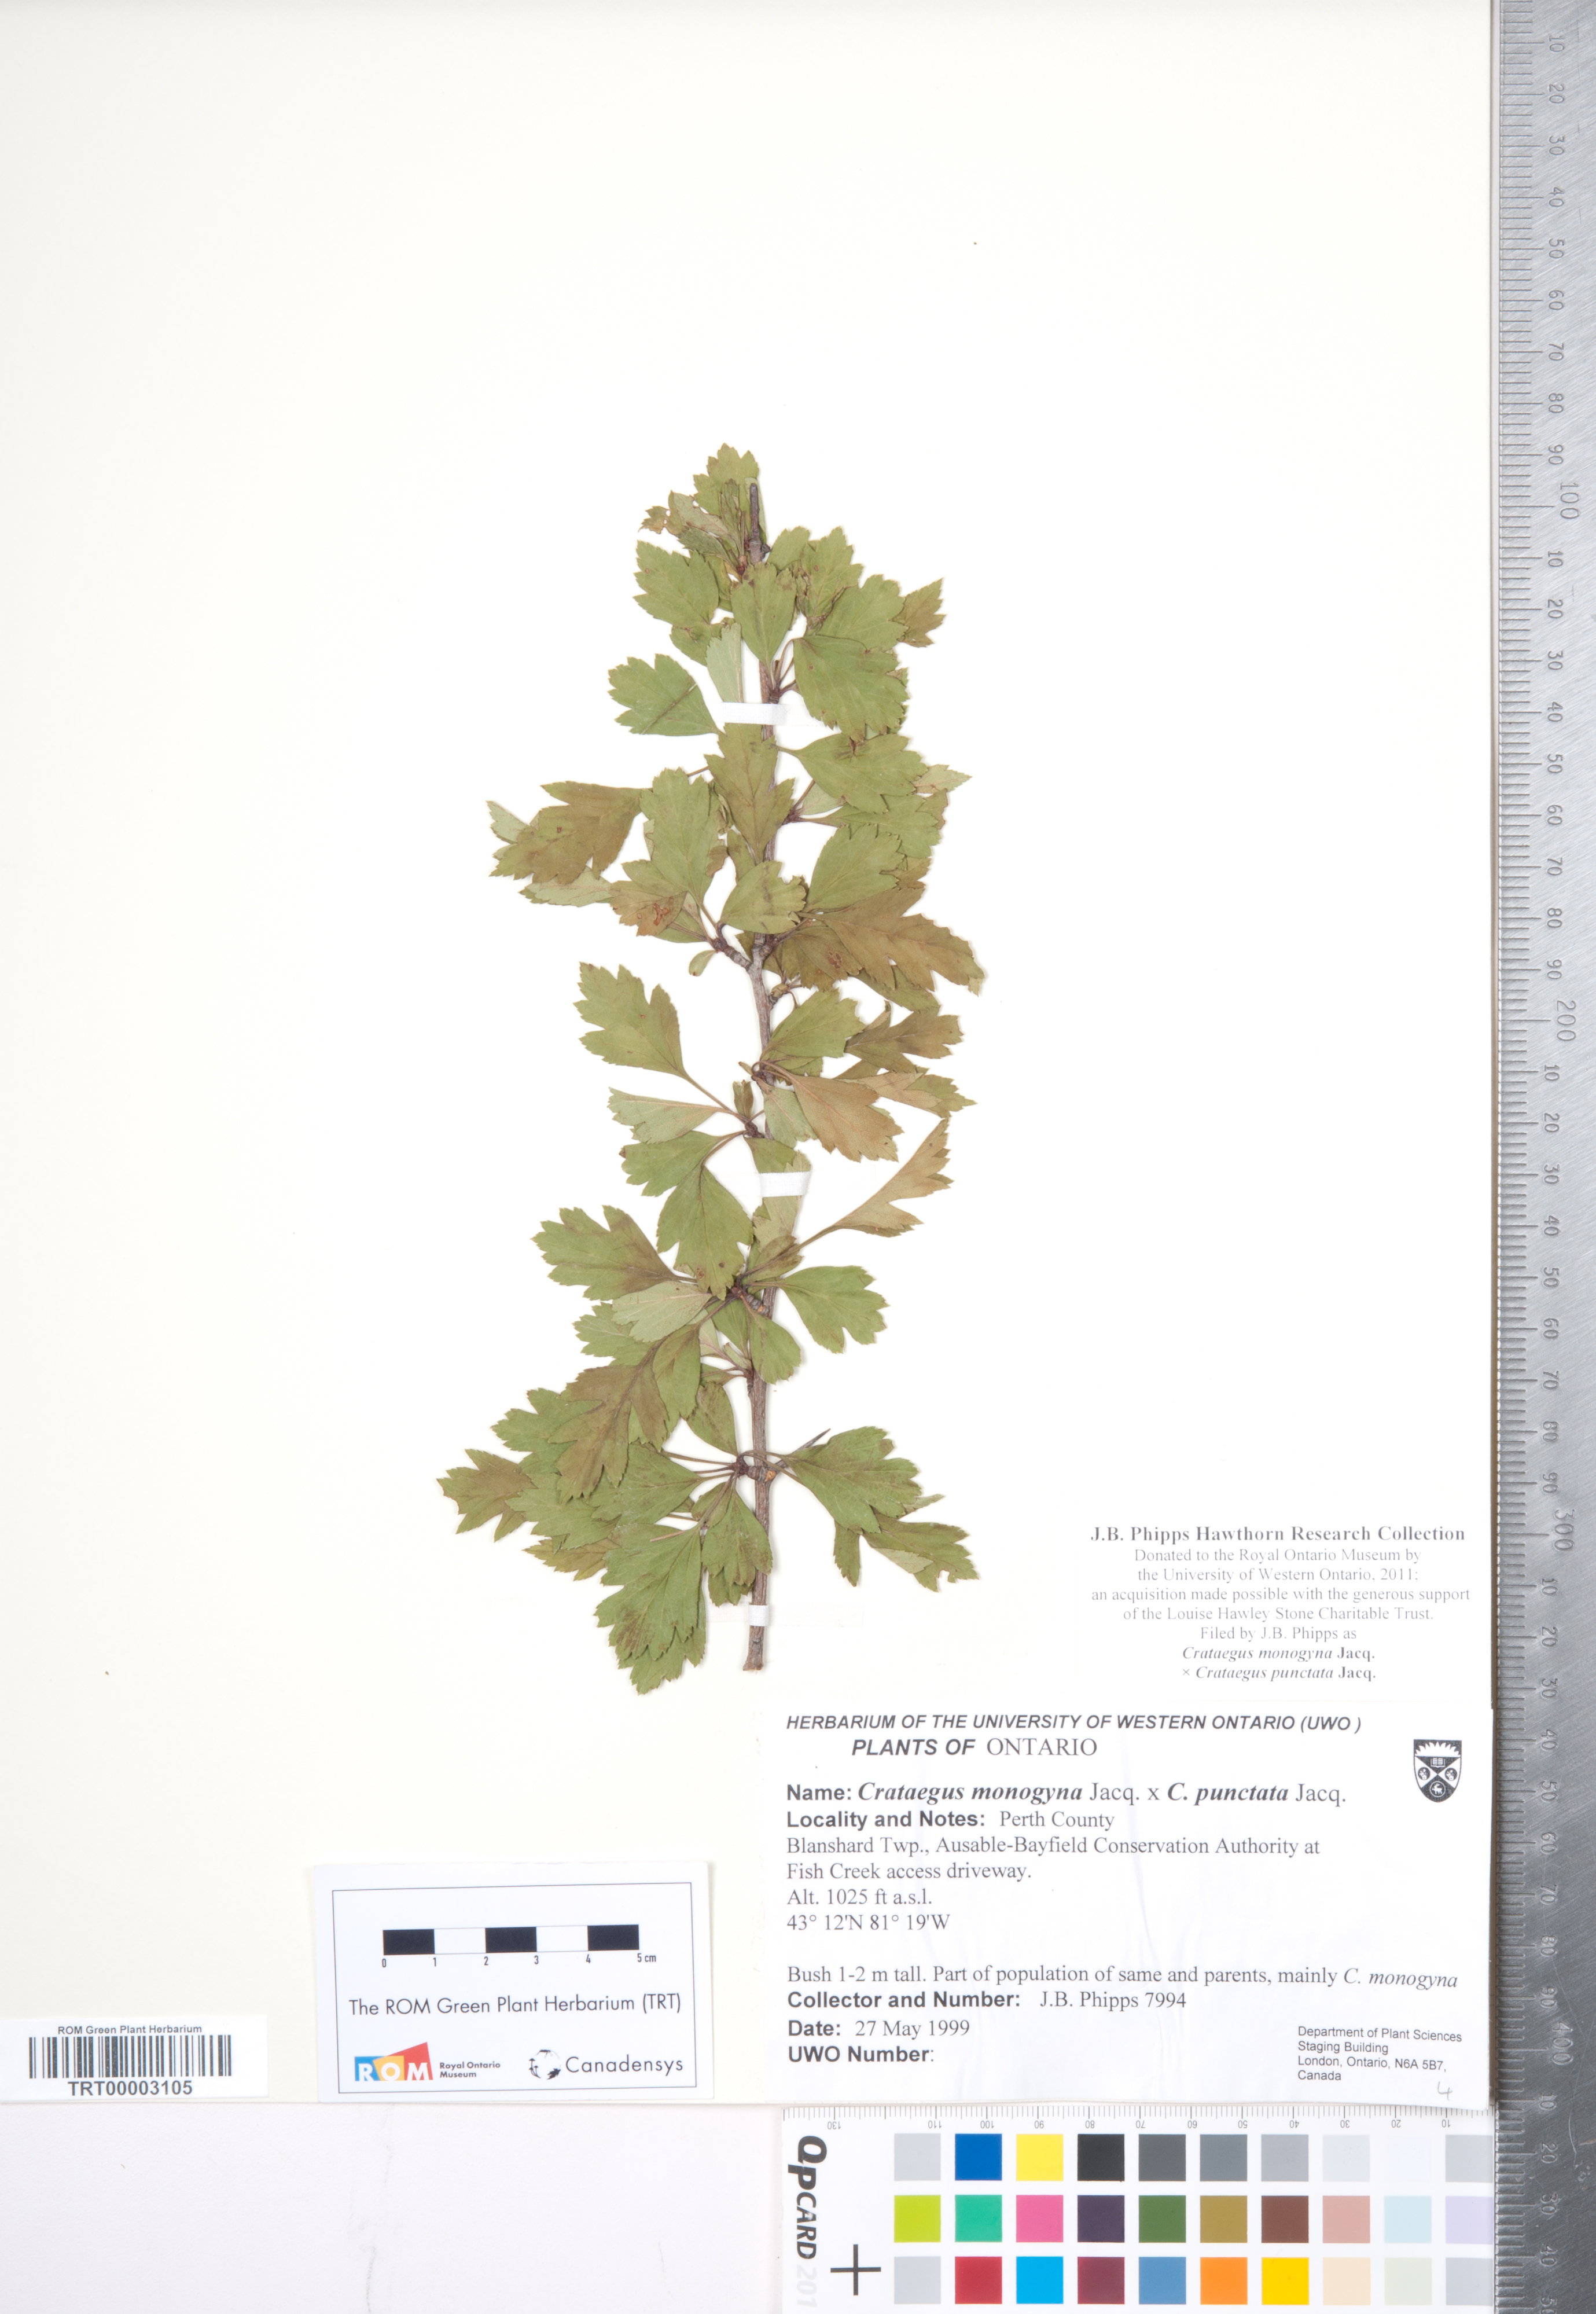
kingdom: Plantae
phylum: Tracheophyta
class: Magnoliopsida
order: Rosales
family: Rosaceae
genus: Crataegus
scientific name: Crataegus
